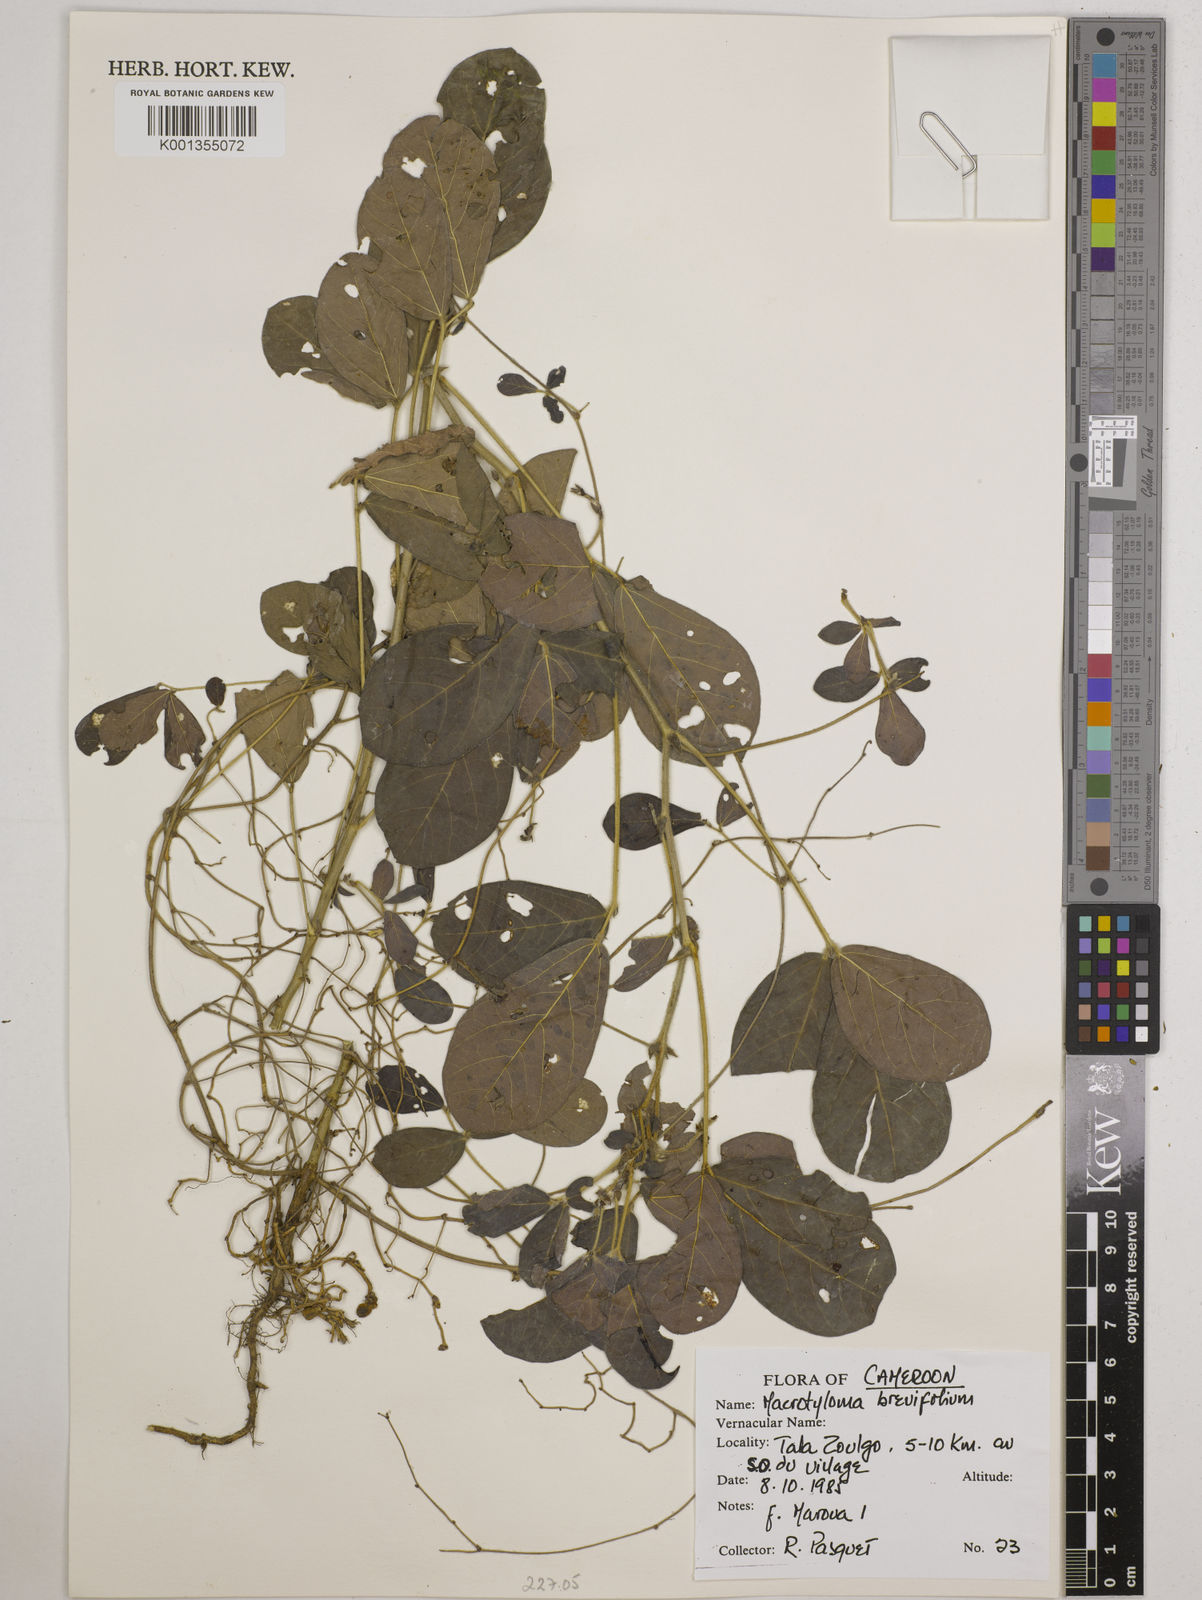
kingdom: Plantae
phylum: Tracheophyta
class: Magnoliopsida
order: Fabales
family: Fabaceae
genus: Macrotyloma
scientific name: Macrotyloma brevicaule
